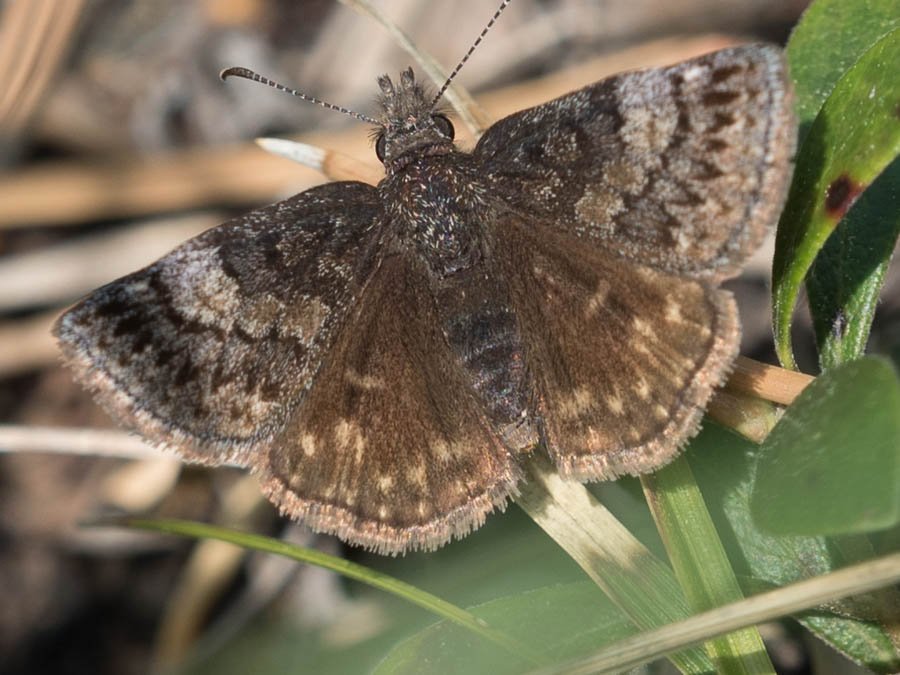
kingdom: Animalia
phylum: Arthropoda
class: Insecta
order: Lepidoptera
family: Hesperiidae
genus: Erynnis
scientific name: Erynnis icelus
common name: Dreamy Duskywing
